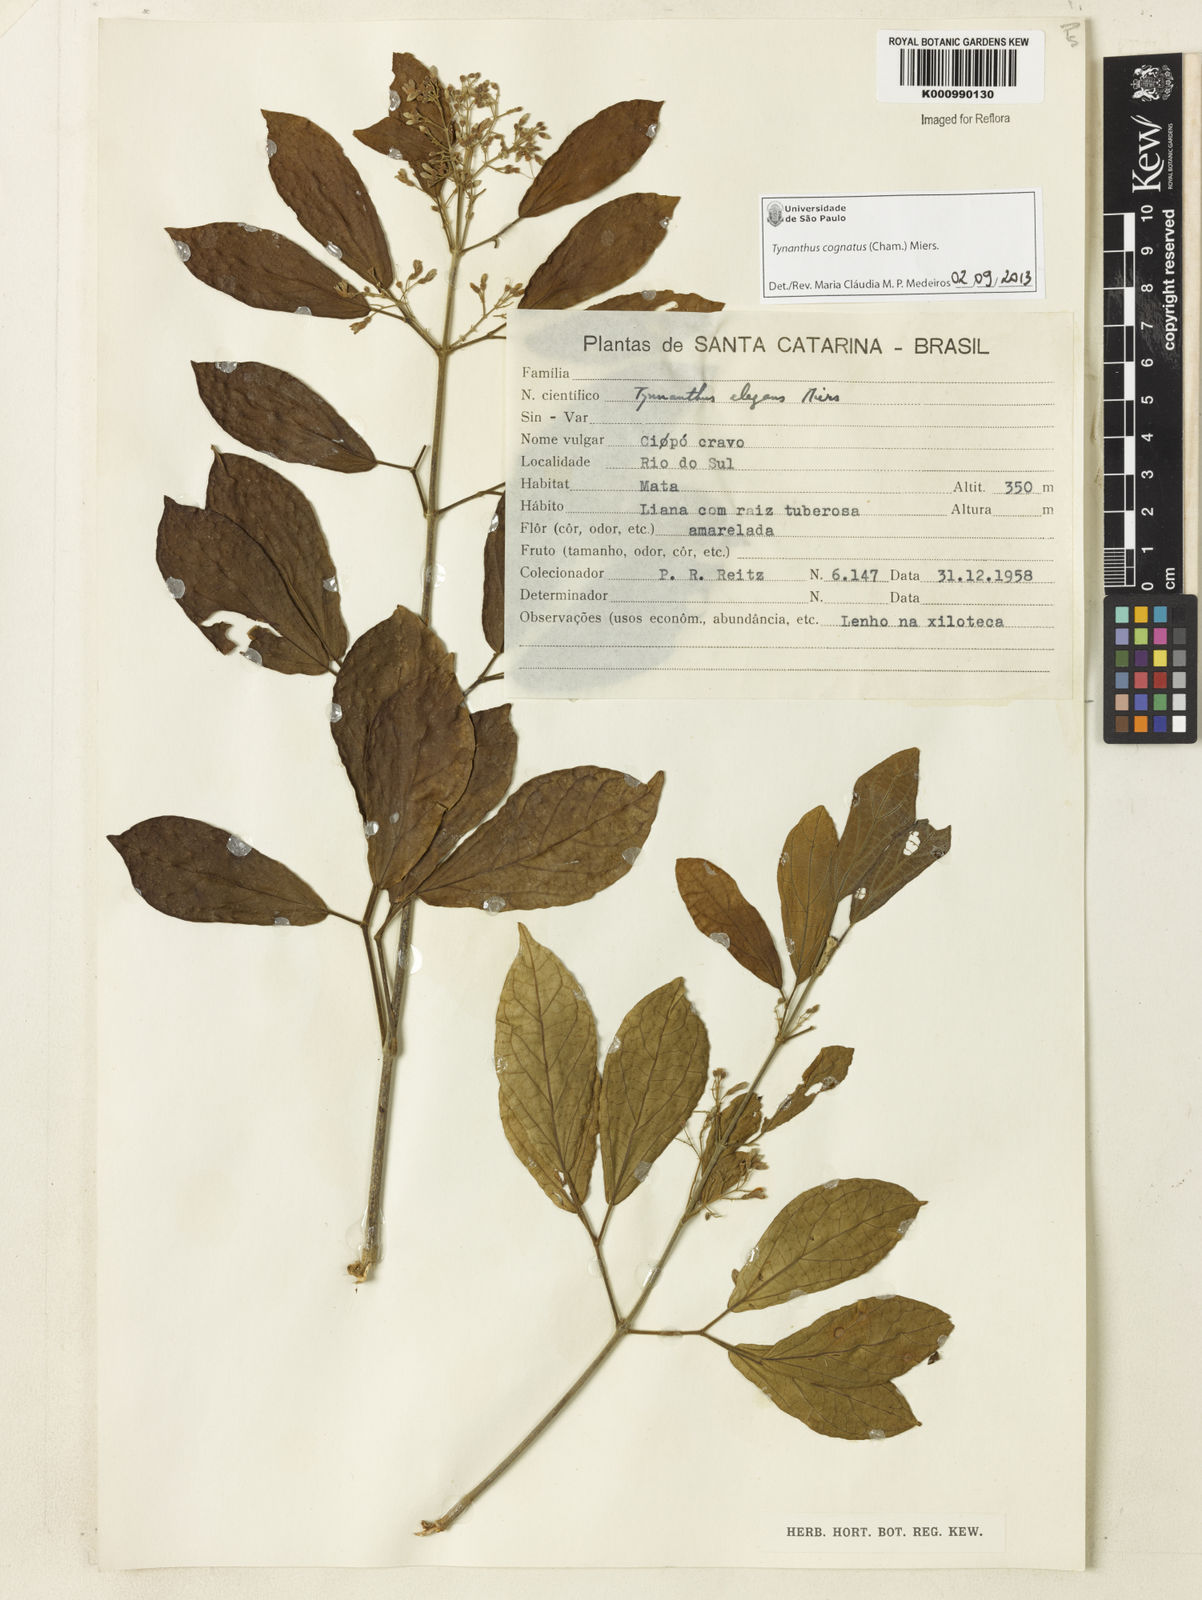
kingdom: Plantae
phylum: Tracheophyta
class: Magnoliopsida
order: Lamiales
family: Bignoniaceae
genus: Tynanthus
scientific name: Tynanthus cognatus
